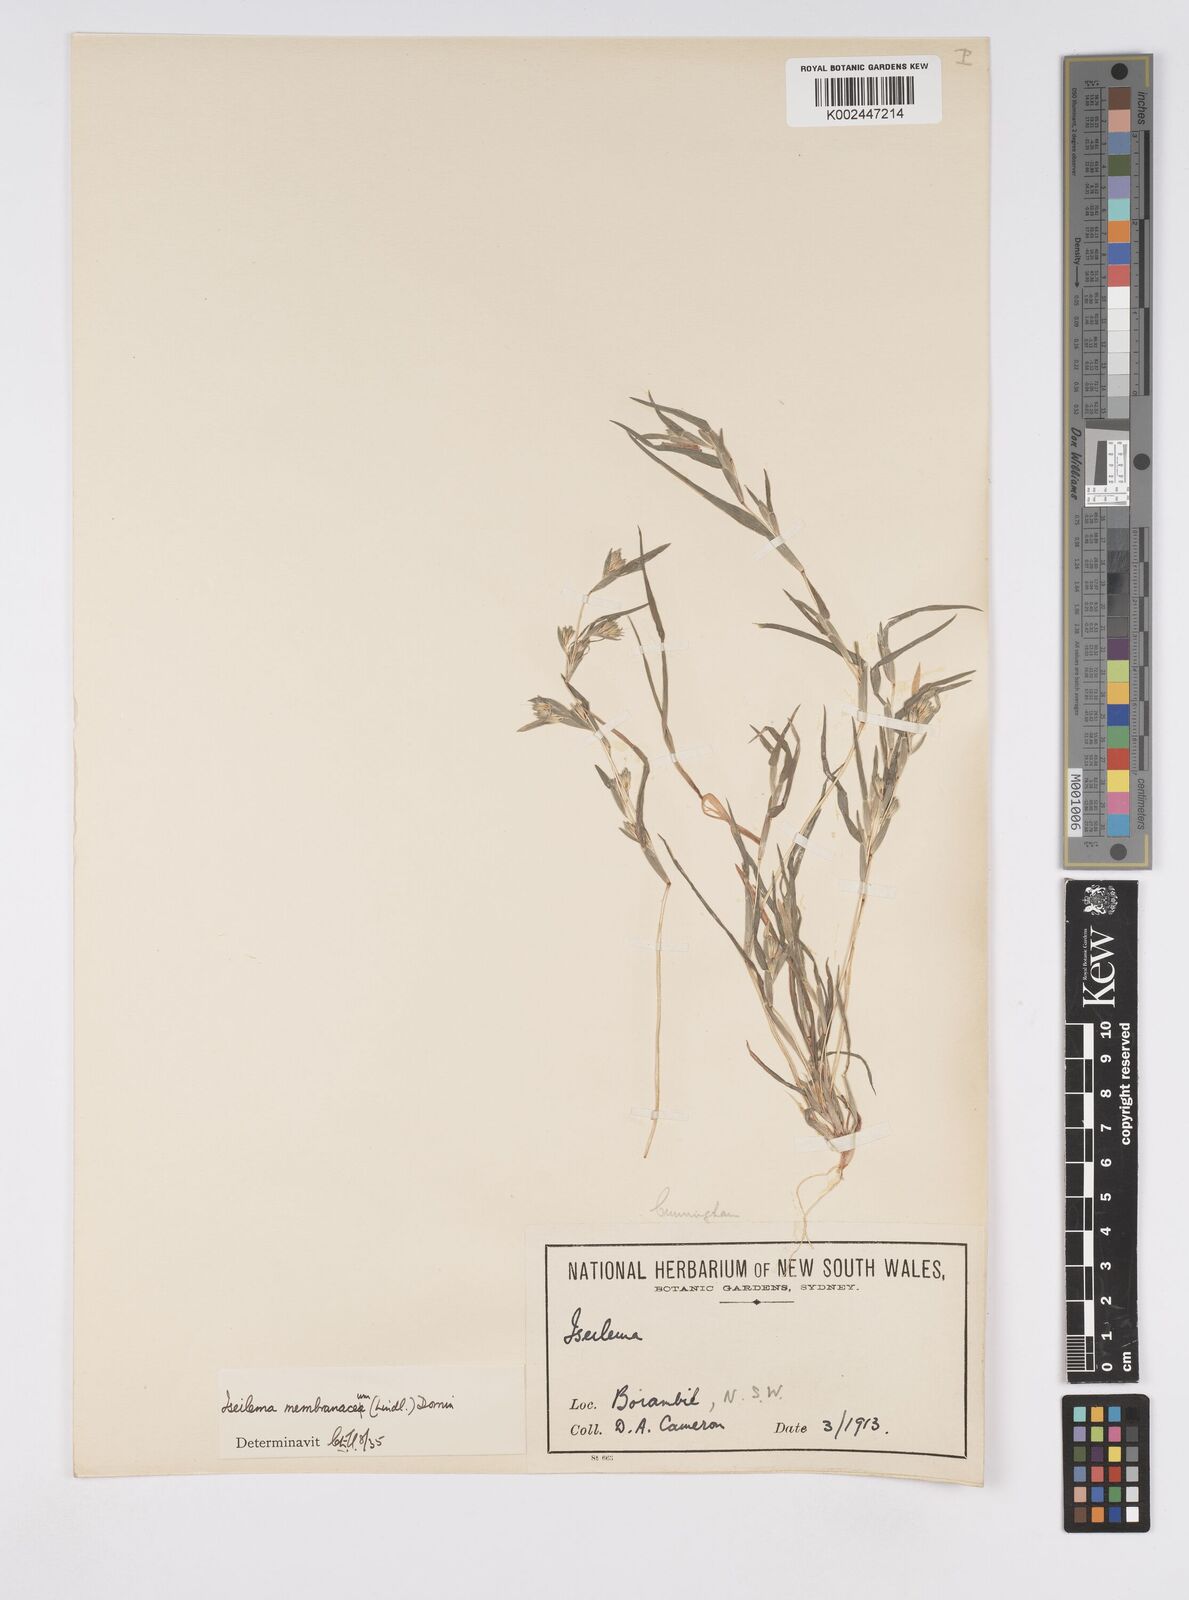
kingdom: Plantae
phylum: Tracheophyta
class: Liliopsida
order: Poales
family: Poaceae
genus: Iseilema
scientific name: Iseilema membranaceum
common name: Small flinders grass
